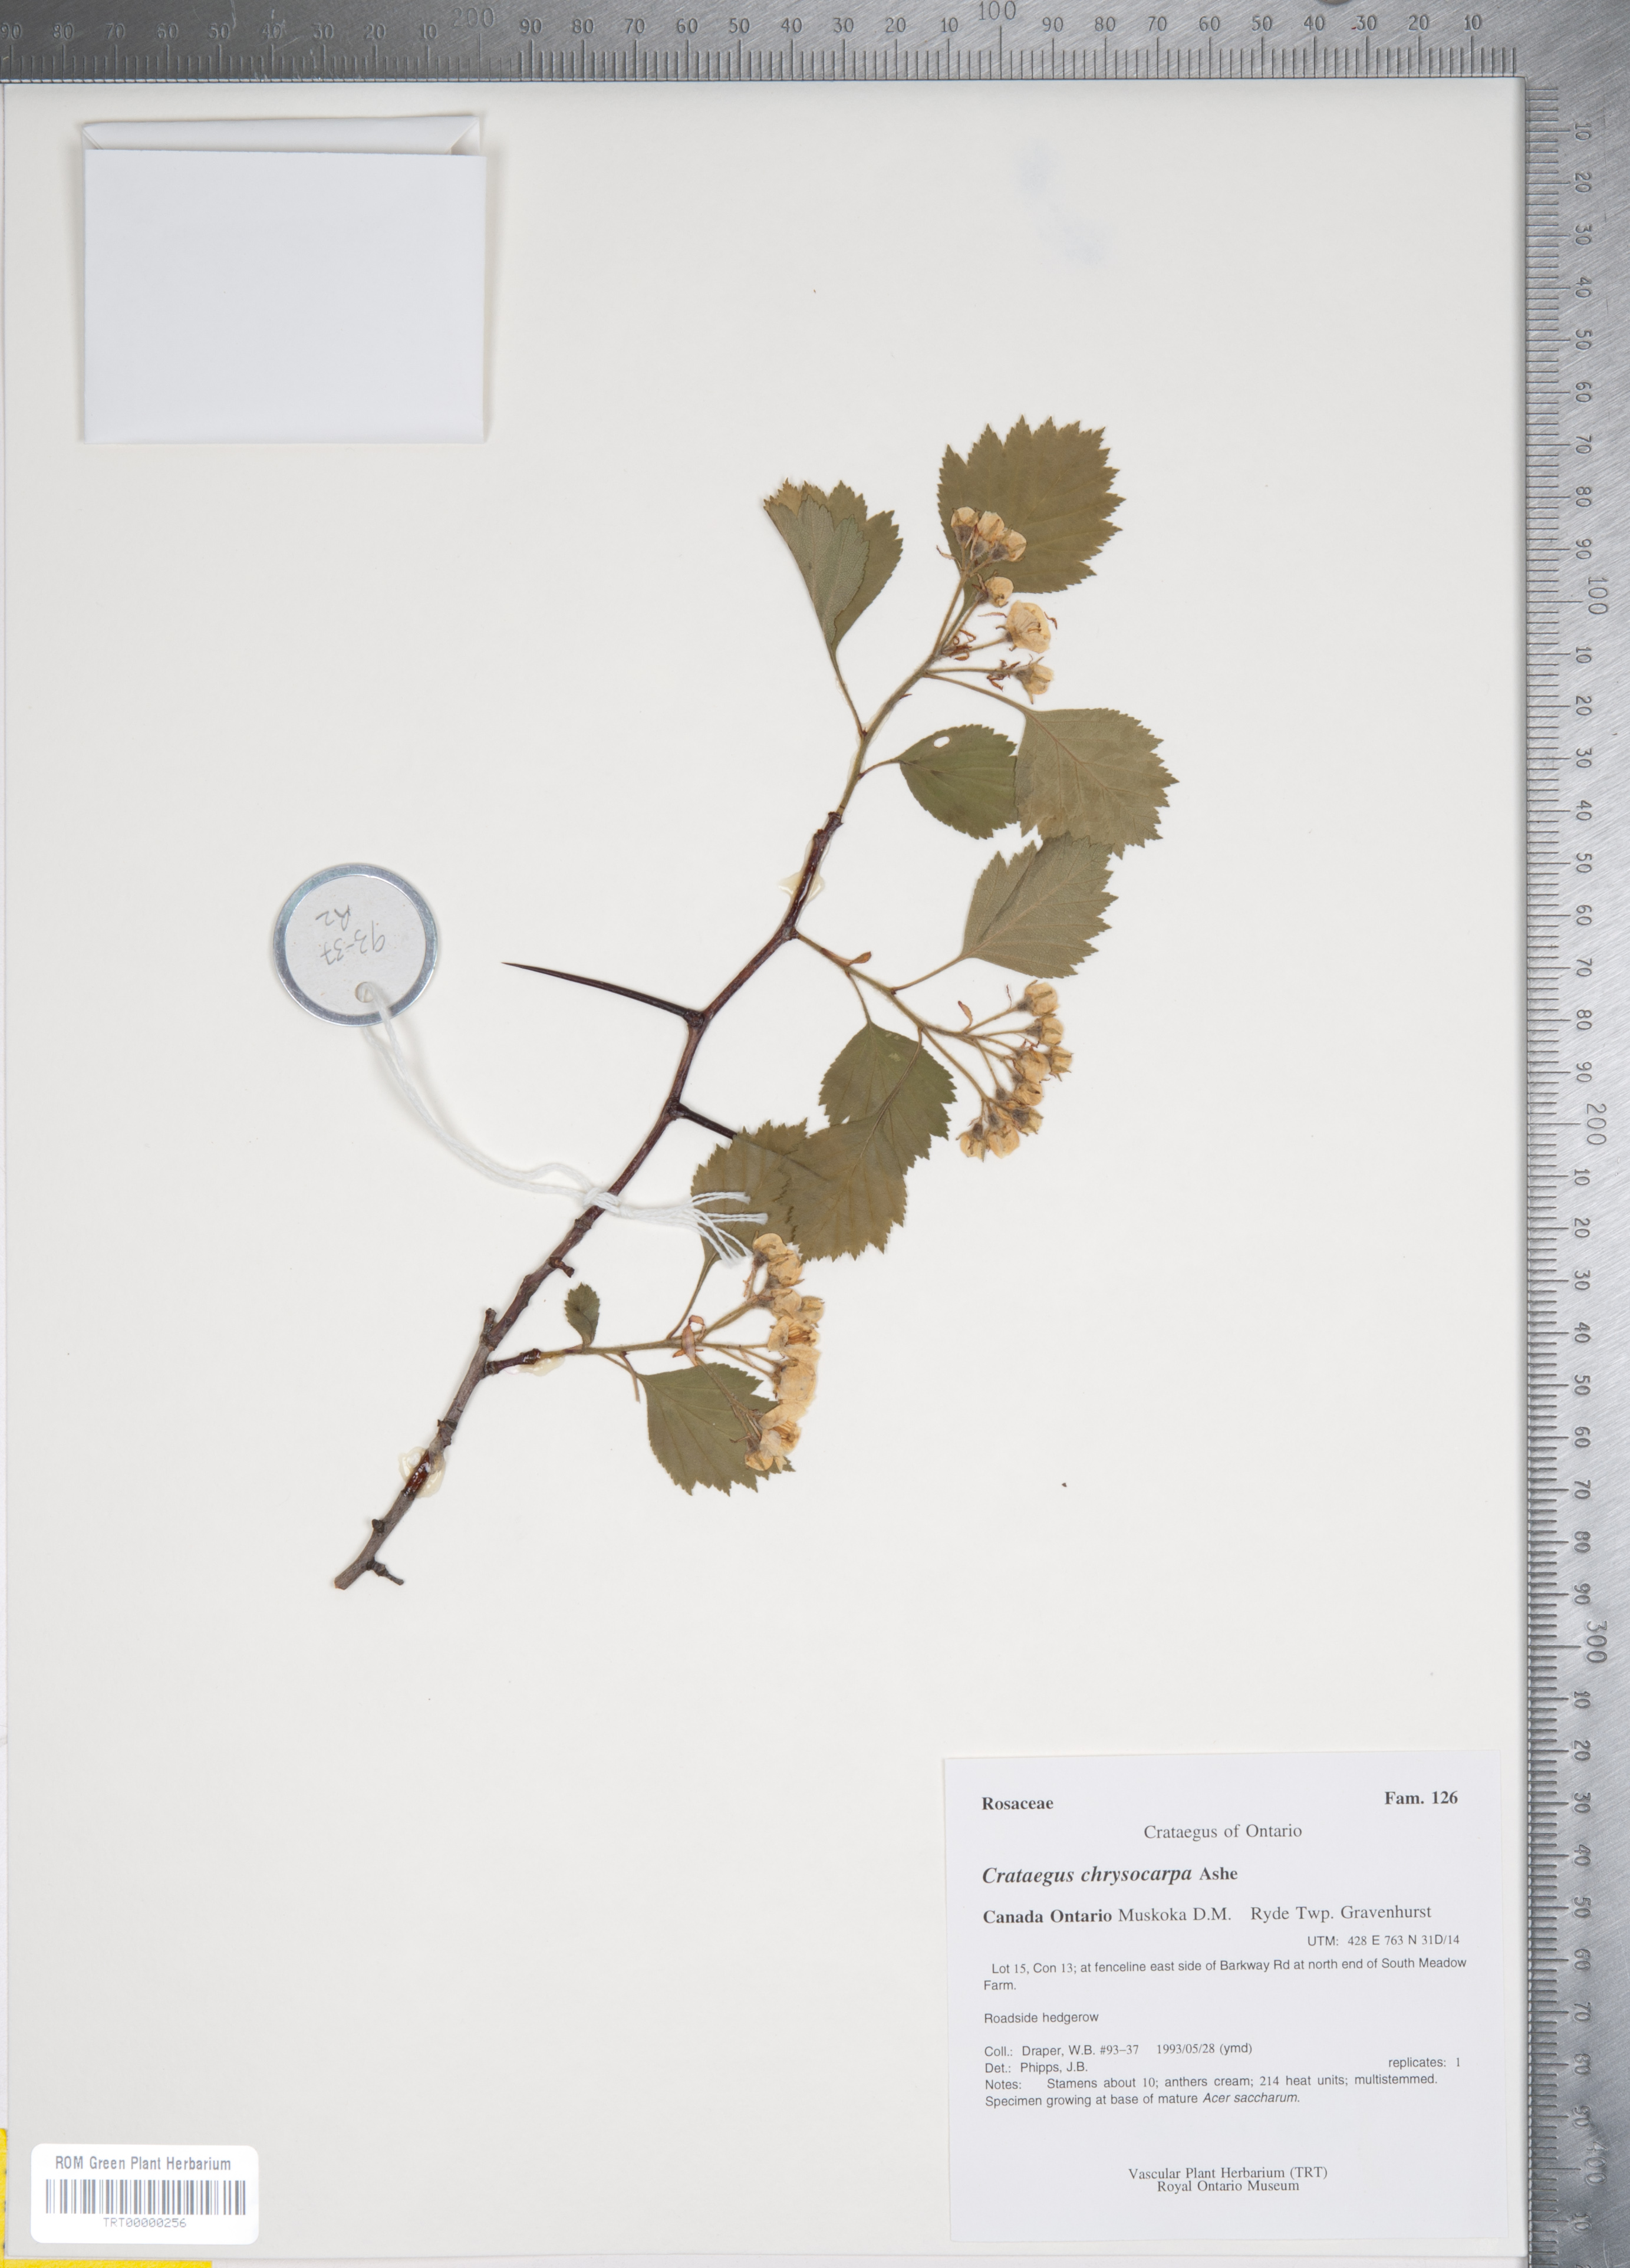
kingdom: Plantae
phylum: Tracheophyta
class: Magnoliopsida
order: Rosales
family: Rosaceae
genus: Crataegus
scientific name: Crataegus chrysocarpa
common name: Fire-berry hawthorn
